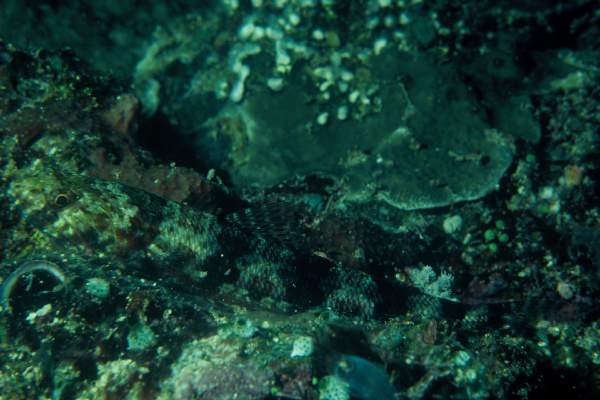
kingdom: Animalia
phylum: Chordata
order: Aulopiformes
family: Synodontidae
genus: Synodus
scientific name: Synodus variegatus
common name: Variegated lizardfish
